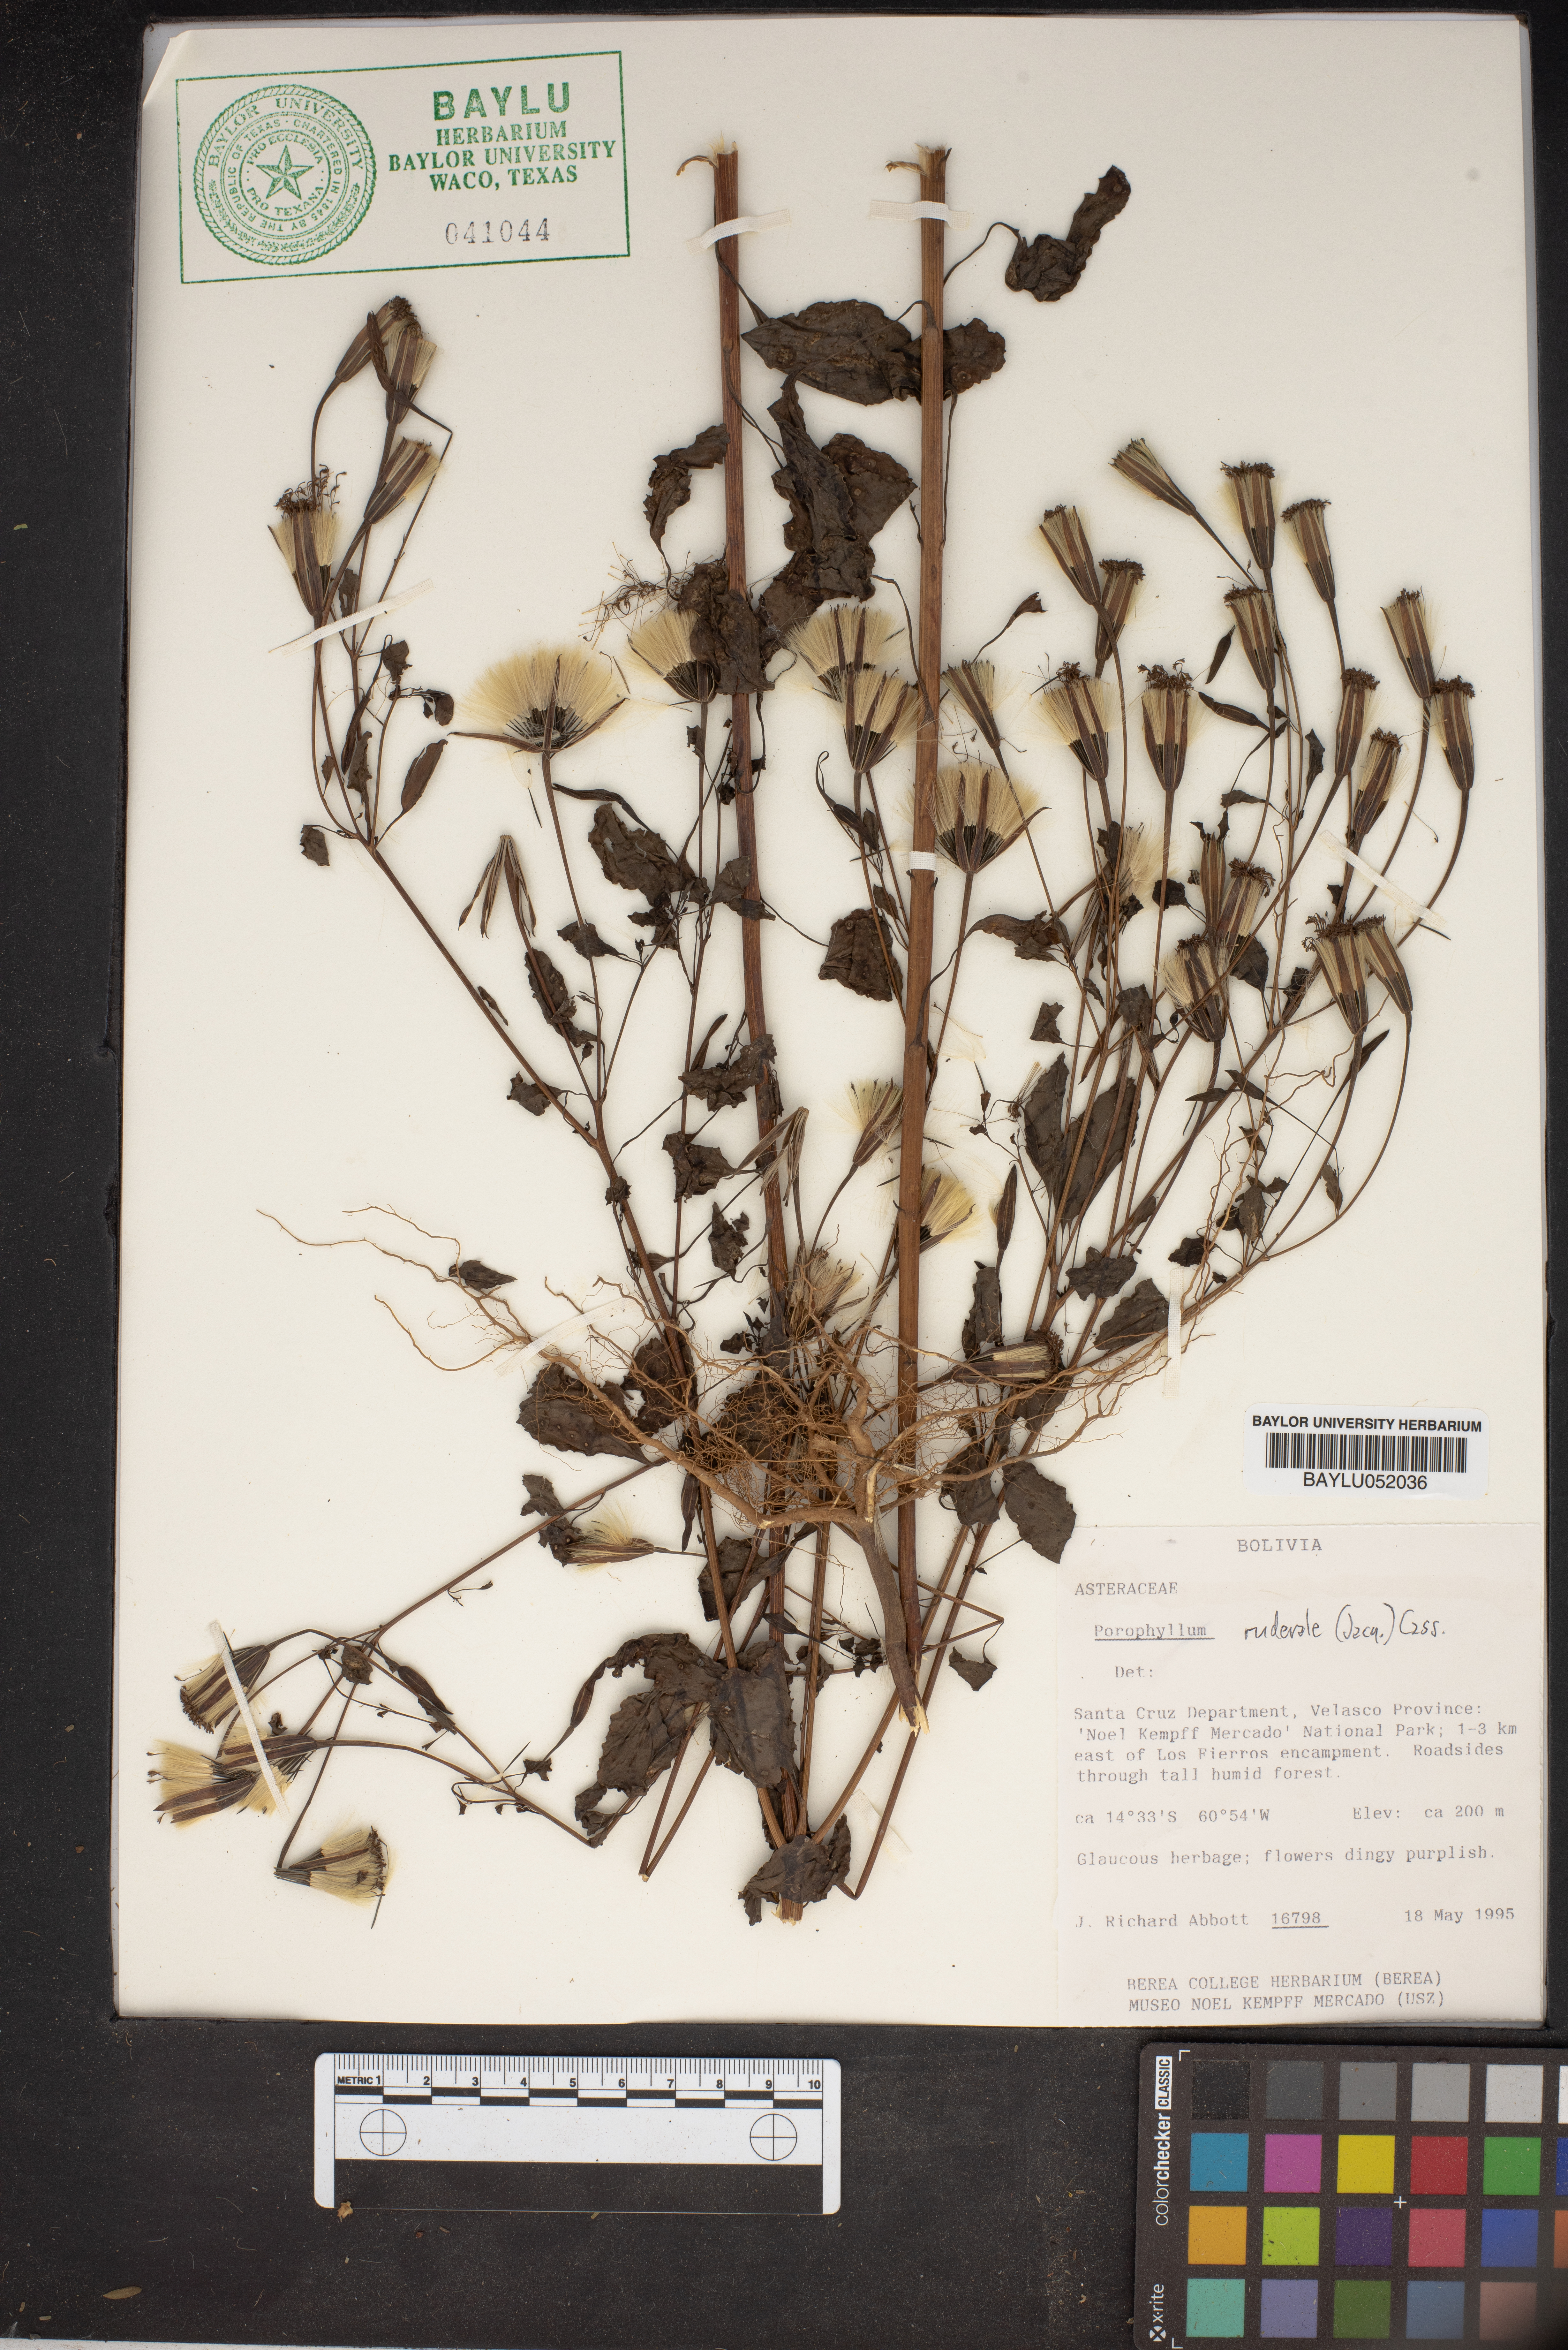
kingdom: Plantae
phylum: Tracheophyta
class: Magnoliopsida
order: Asterales
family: Asteraceae
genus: Porophyllum
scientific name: Porophyllum ruderale
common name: Yerba porosa
